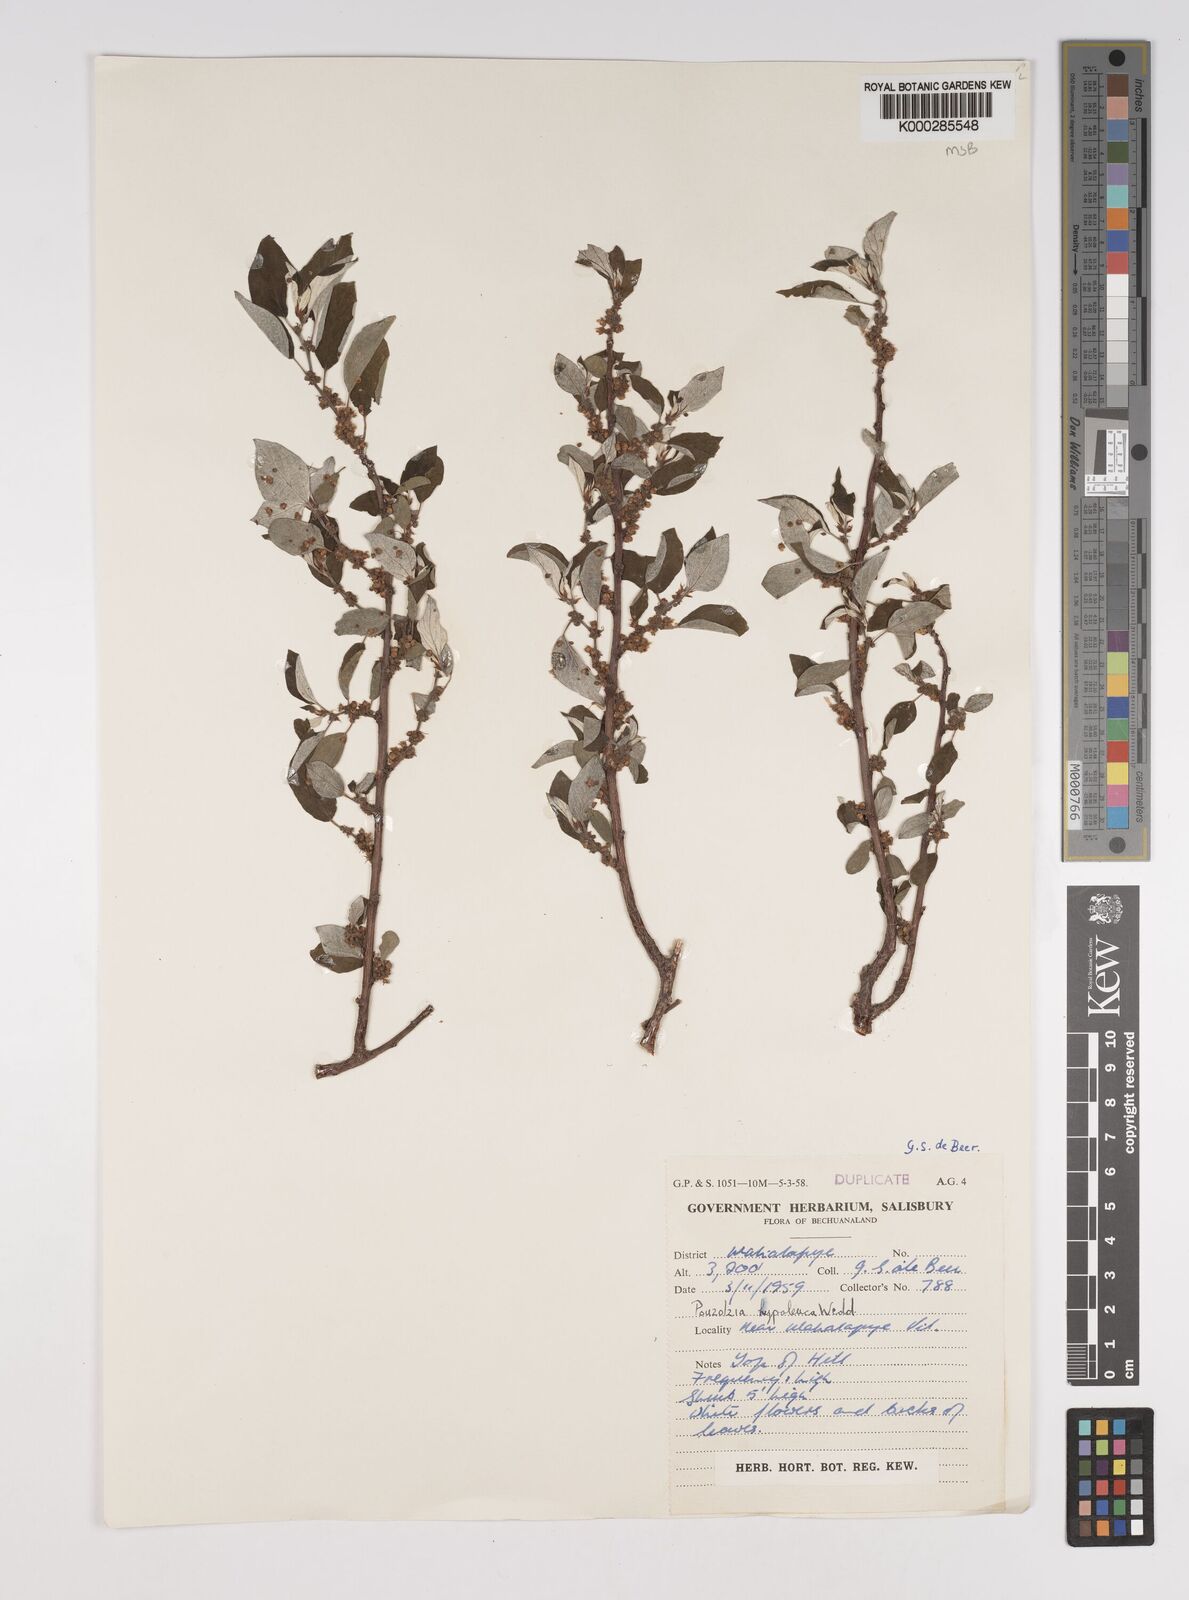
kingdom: Plantae
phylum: Tracheophyta
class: Magnoliopsida
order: Rosales
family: Urticaceae
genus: Pouzolzia
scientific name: Pouzolzia mixta
